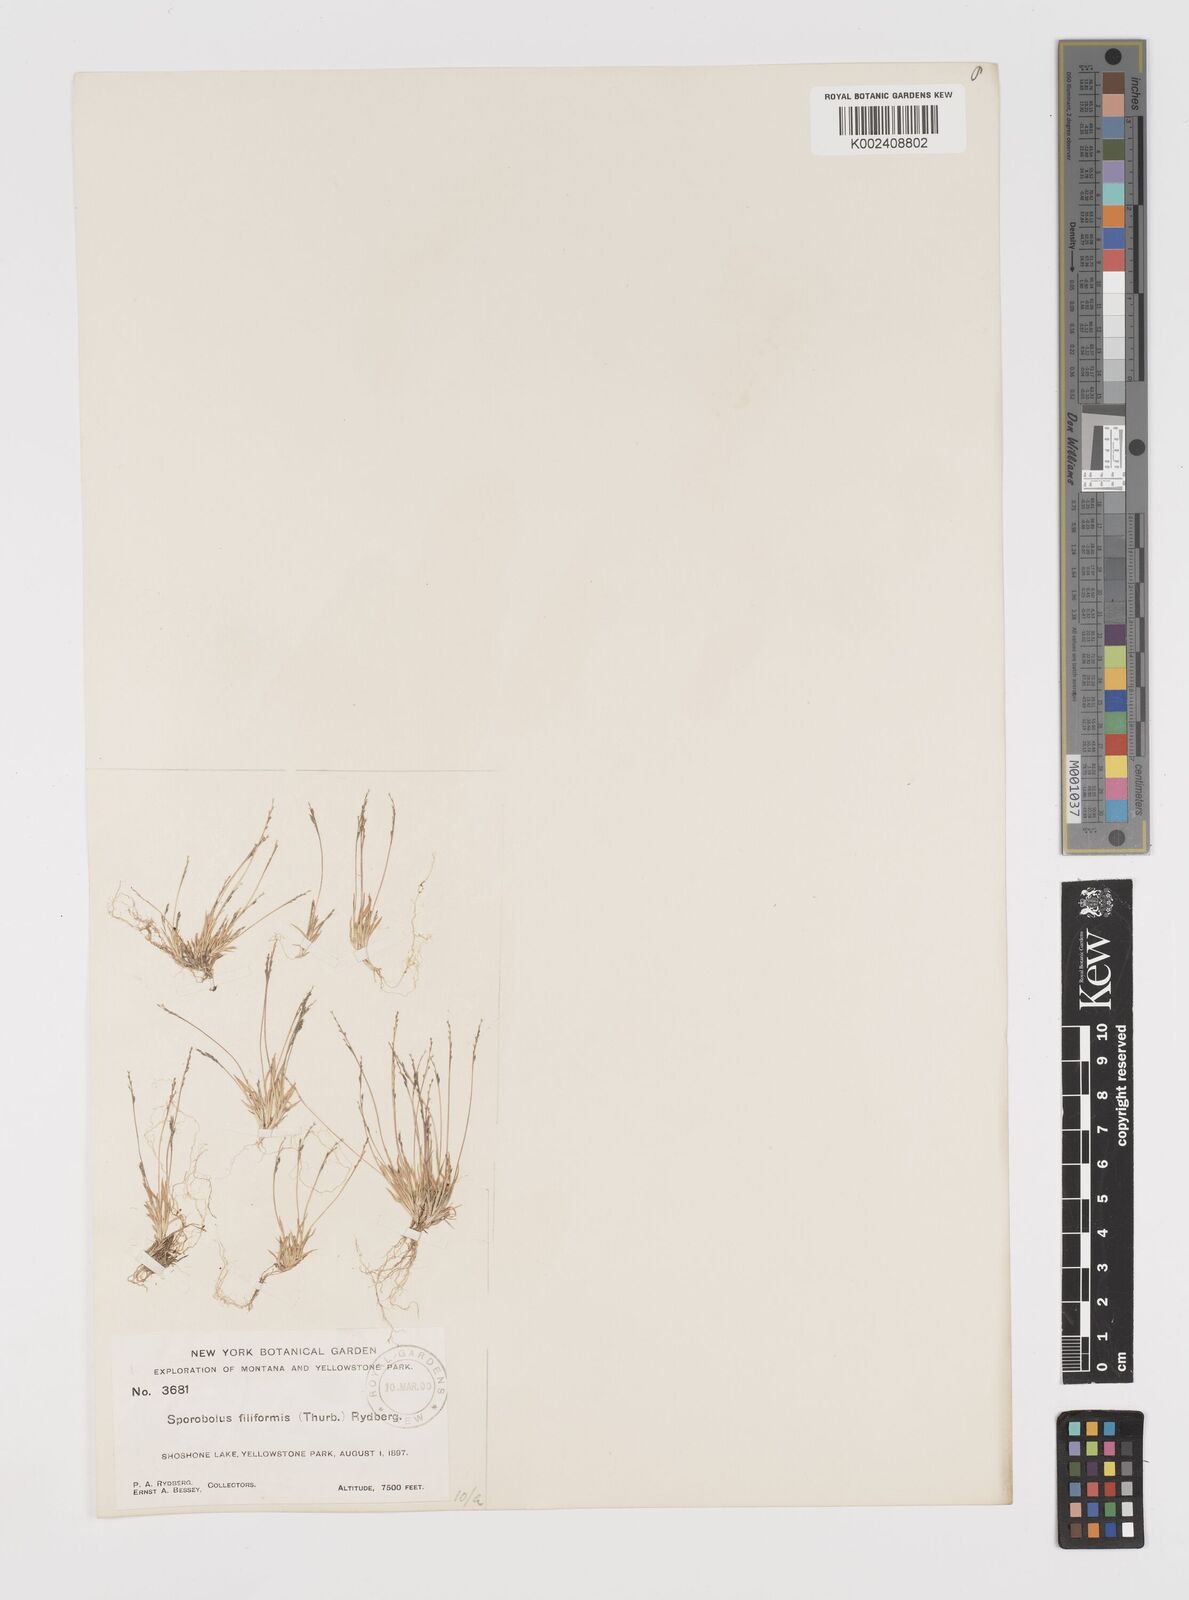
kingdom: Plantae
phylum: Tracheophyta
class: Liliopsida
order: Poales
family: Poaceae
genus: Leptochloa
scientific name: Leptochloa mucronata
